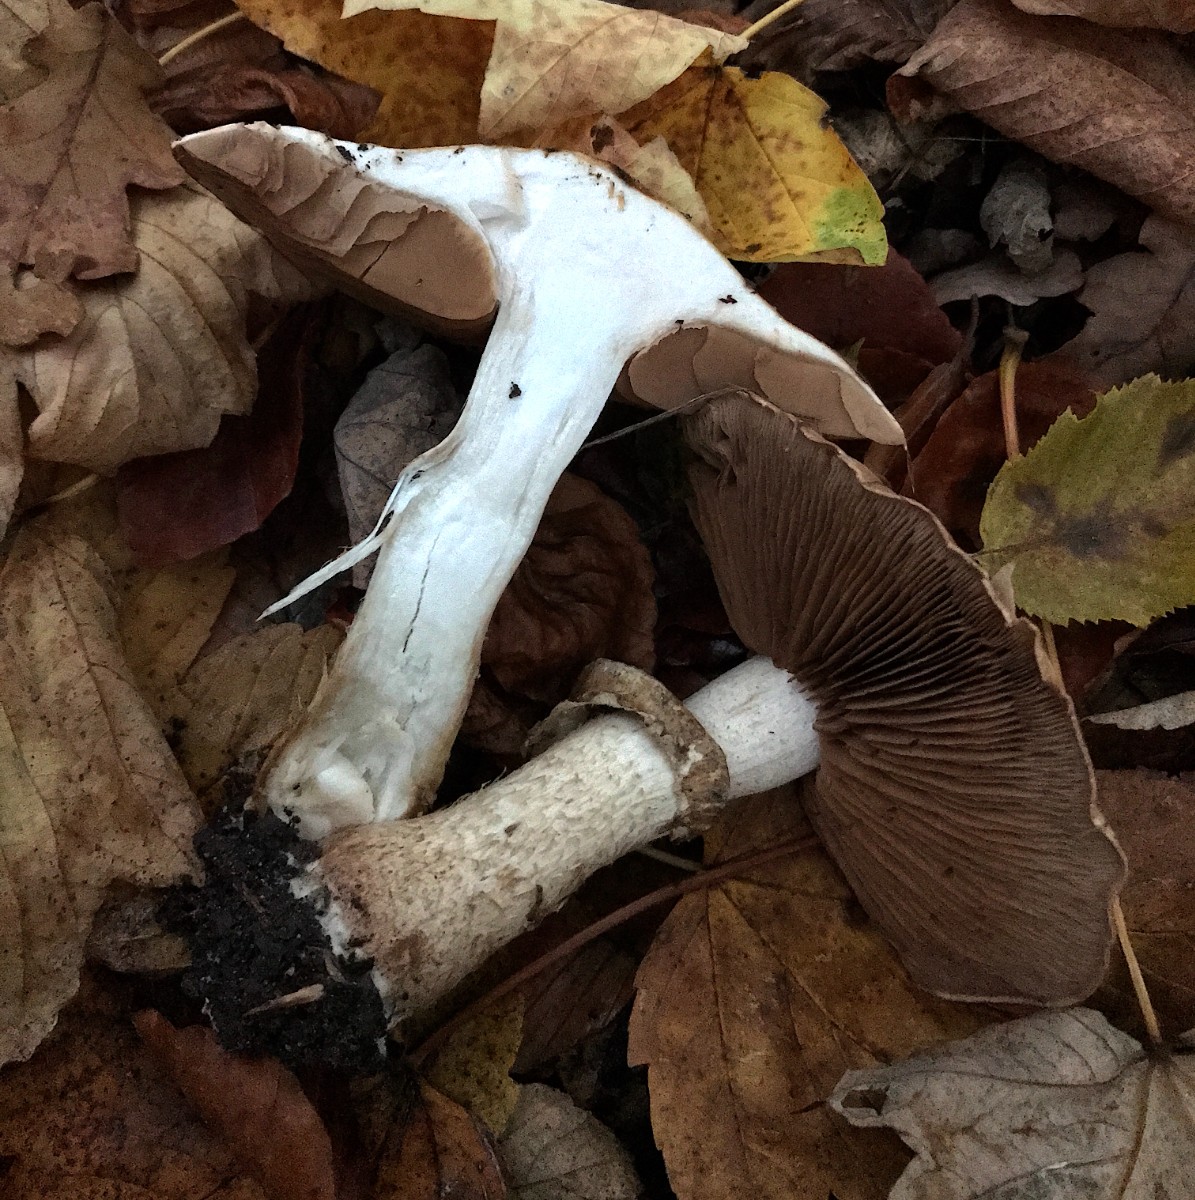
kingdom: Fungi
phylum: Basidiomycota
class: Agaricomycetes
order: Agaricales
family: Agaricaceae
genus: Agaricus
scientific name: Agaricus
